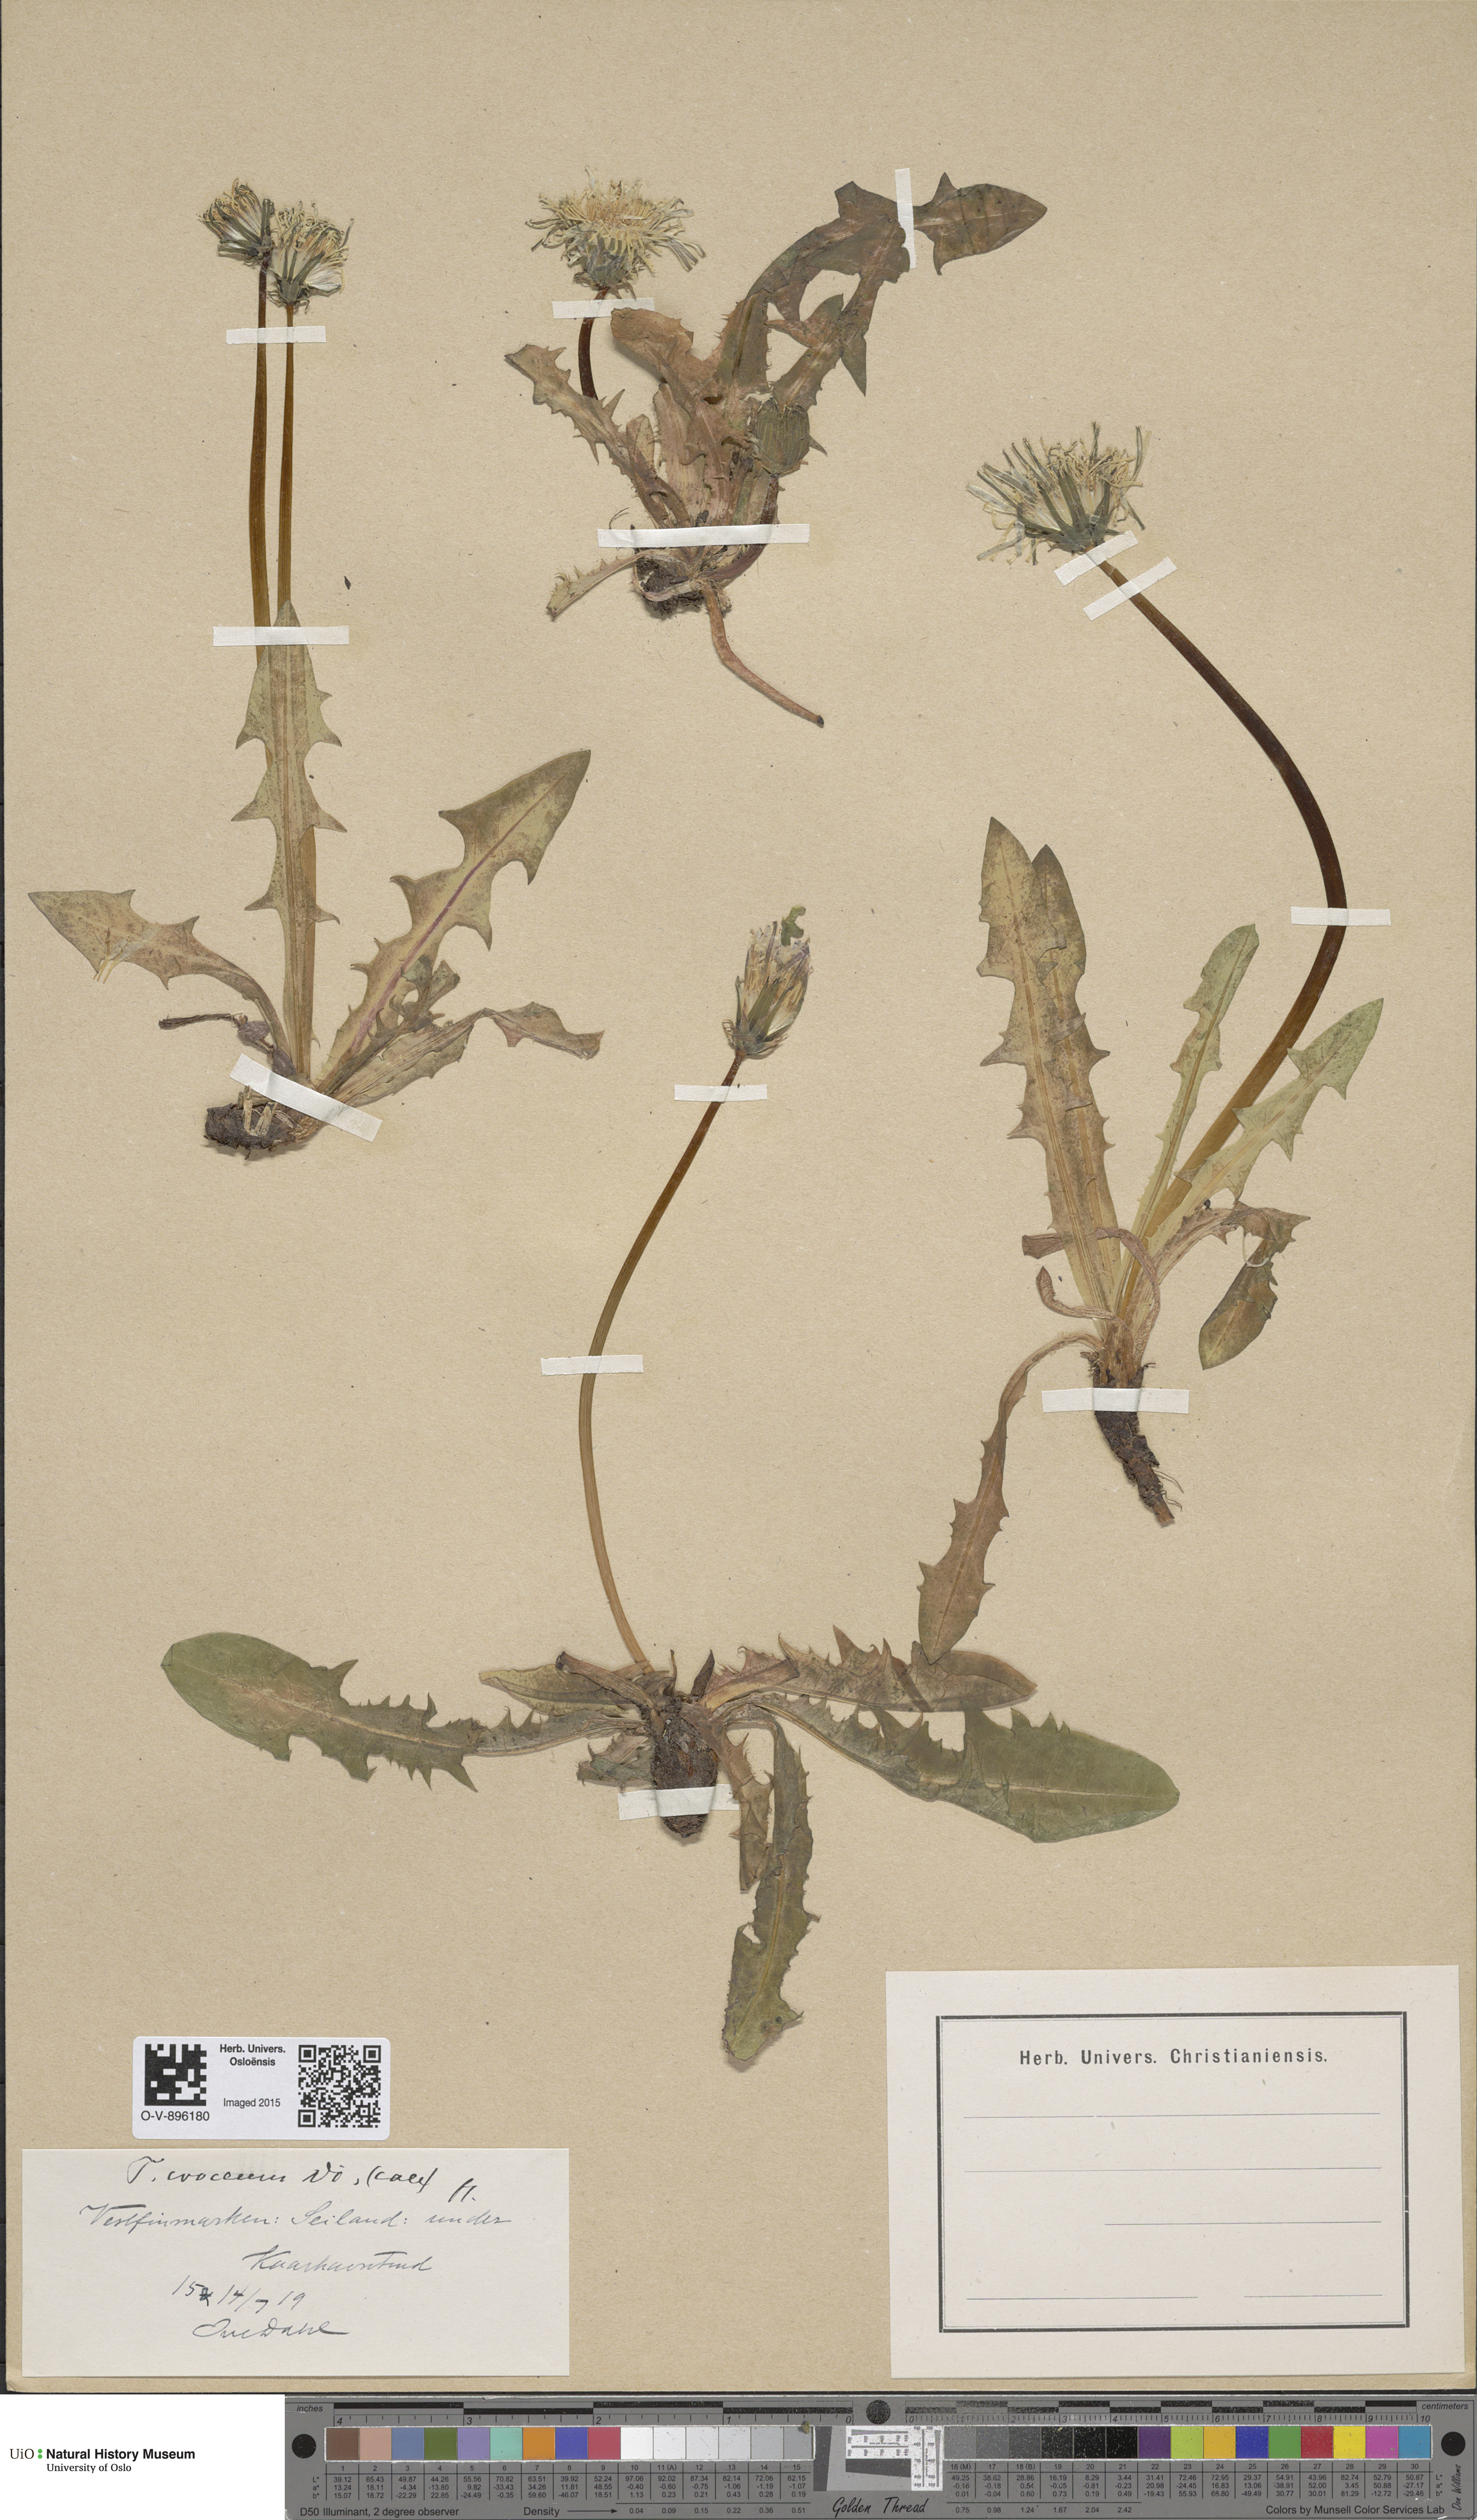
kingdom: Plantae
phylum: Tracheophyta
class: Magnoliopsida
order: Asterales
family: Asteraceae
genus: Taraxacum
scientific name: Taraxacum croceum
